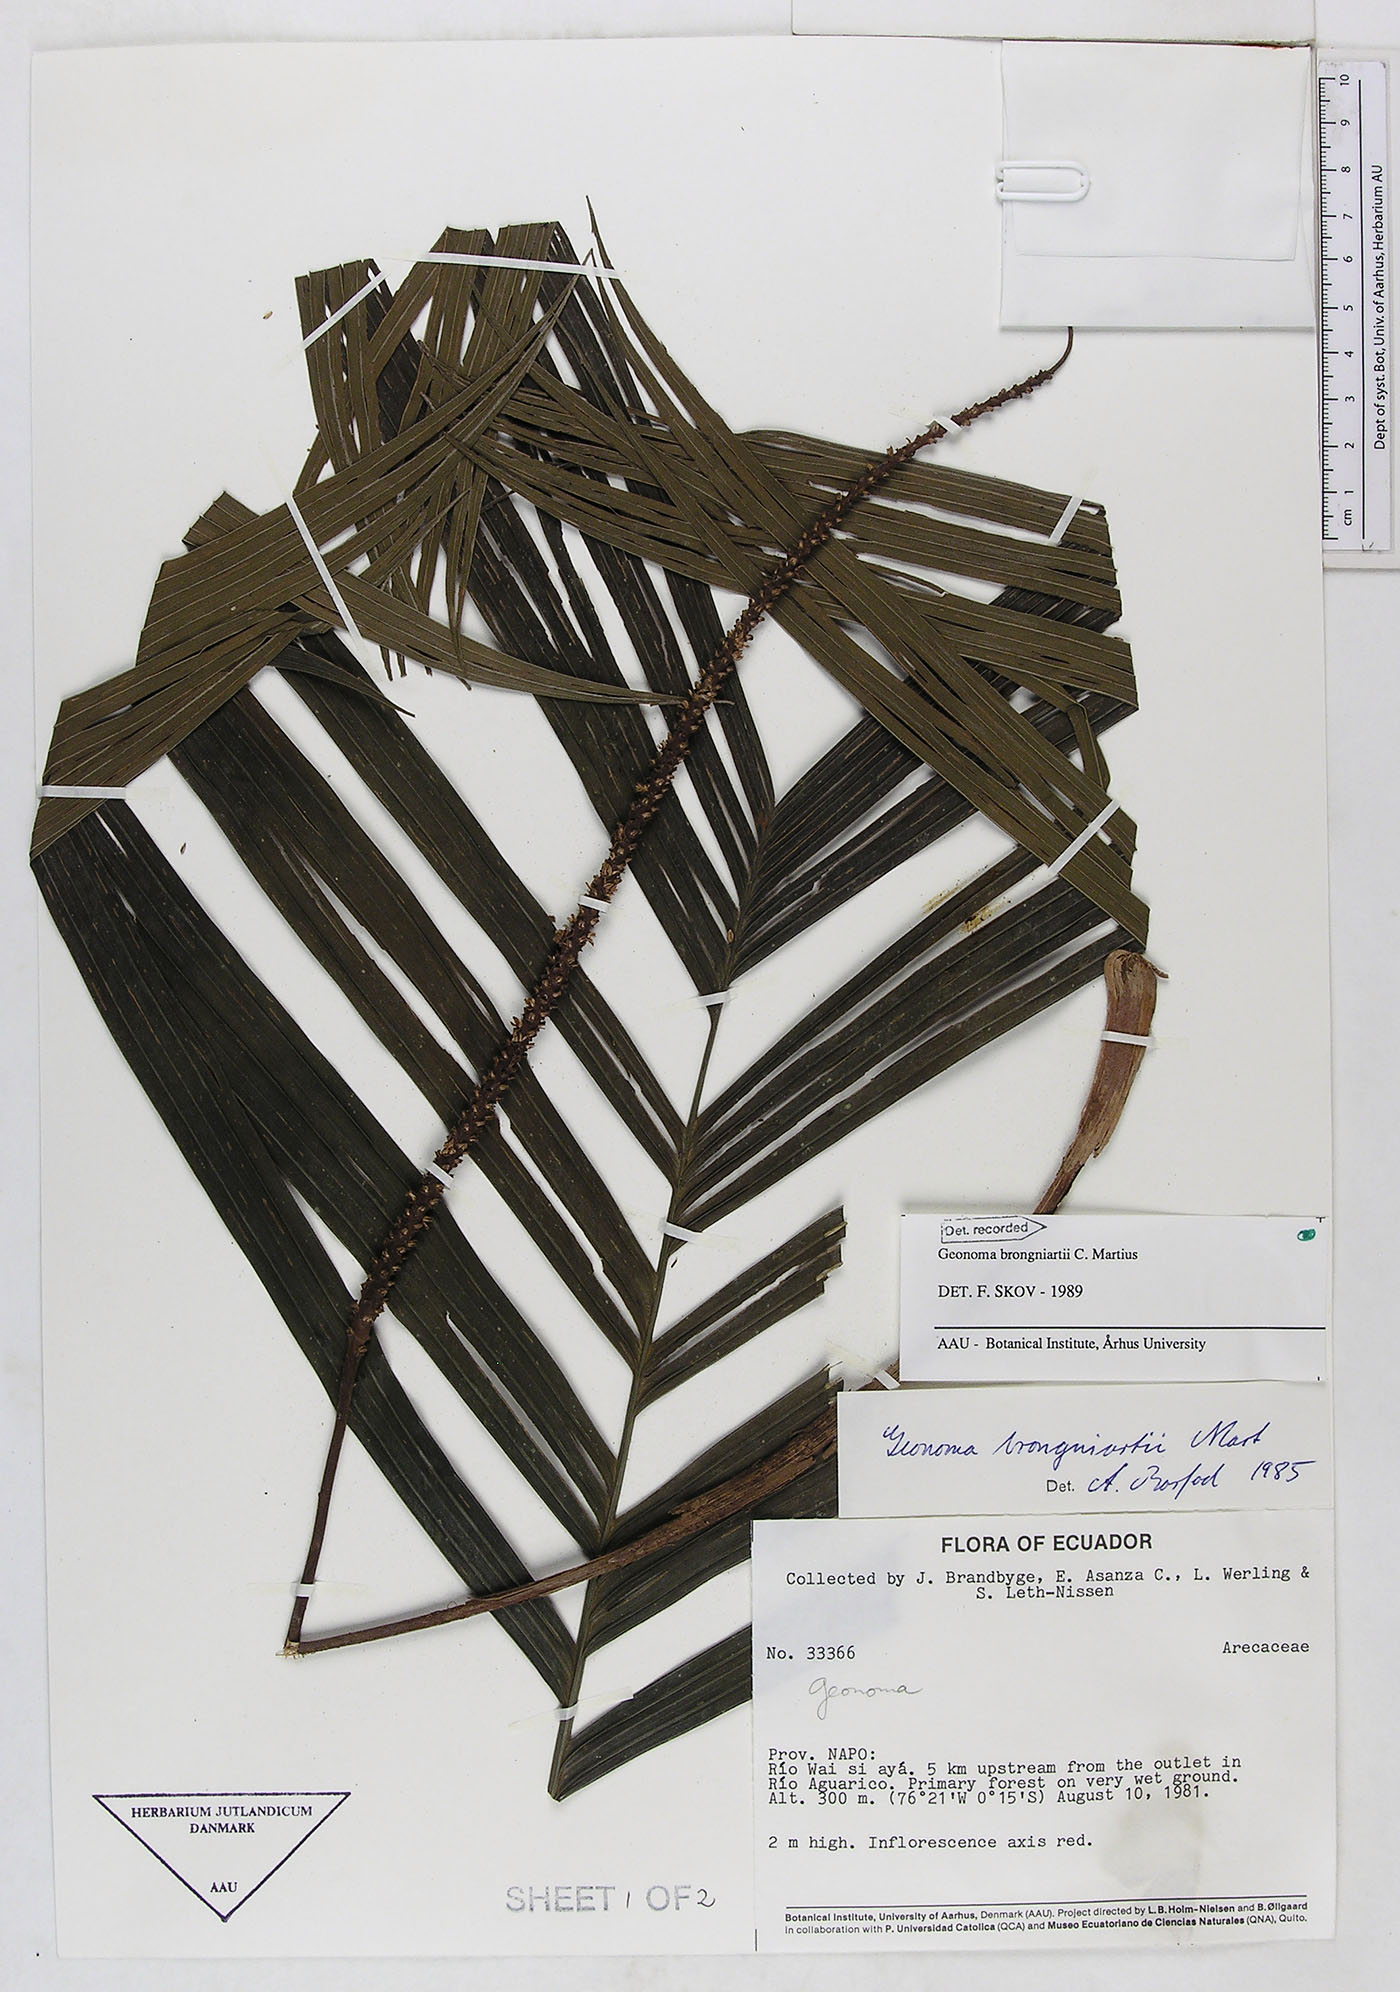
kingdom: Plantae
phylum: Tracheophyta
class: Liliopsida
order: Arecales
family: Arecaceae
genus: Geonoma
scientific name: Geonoma brongniartii
